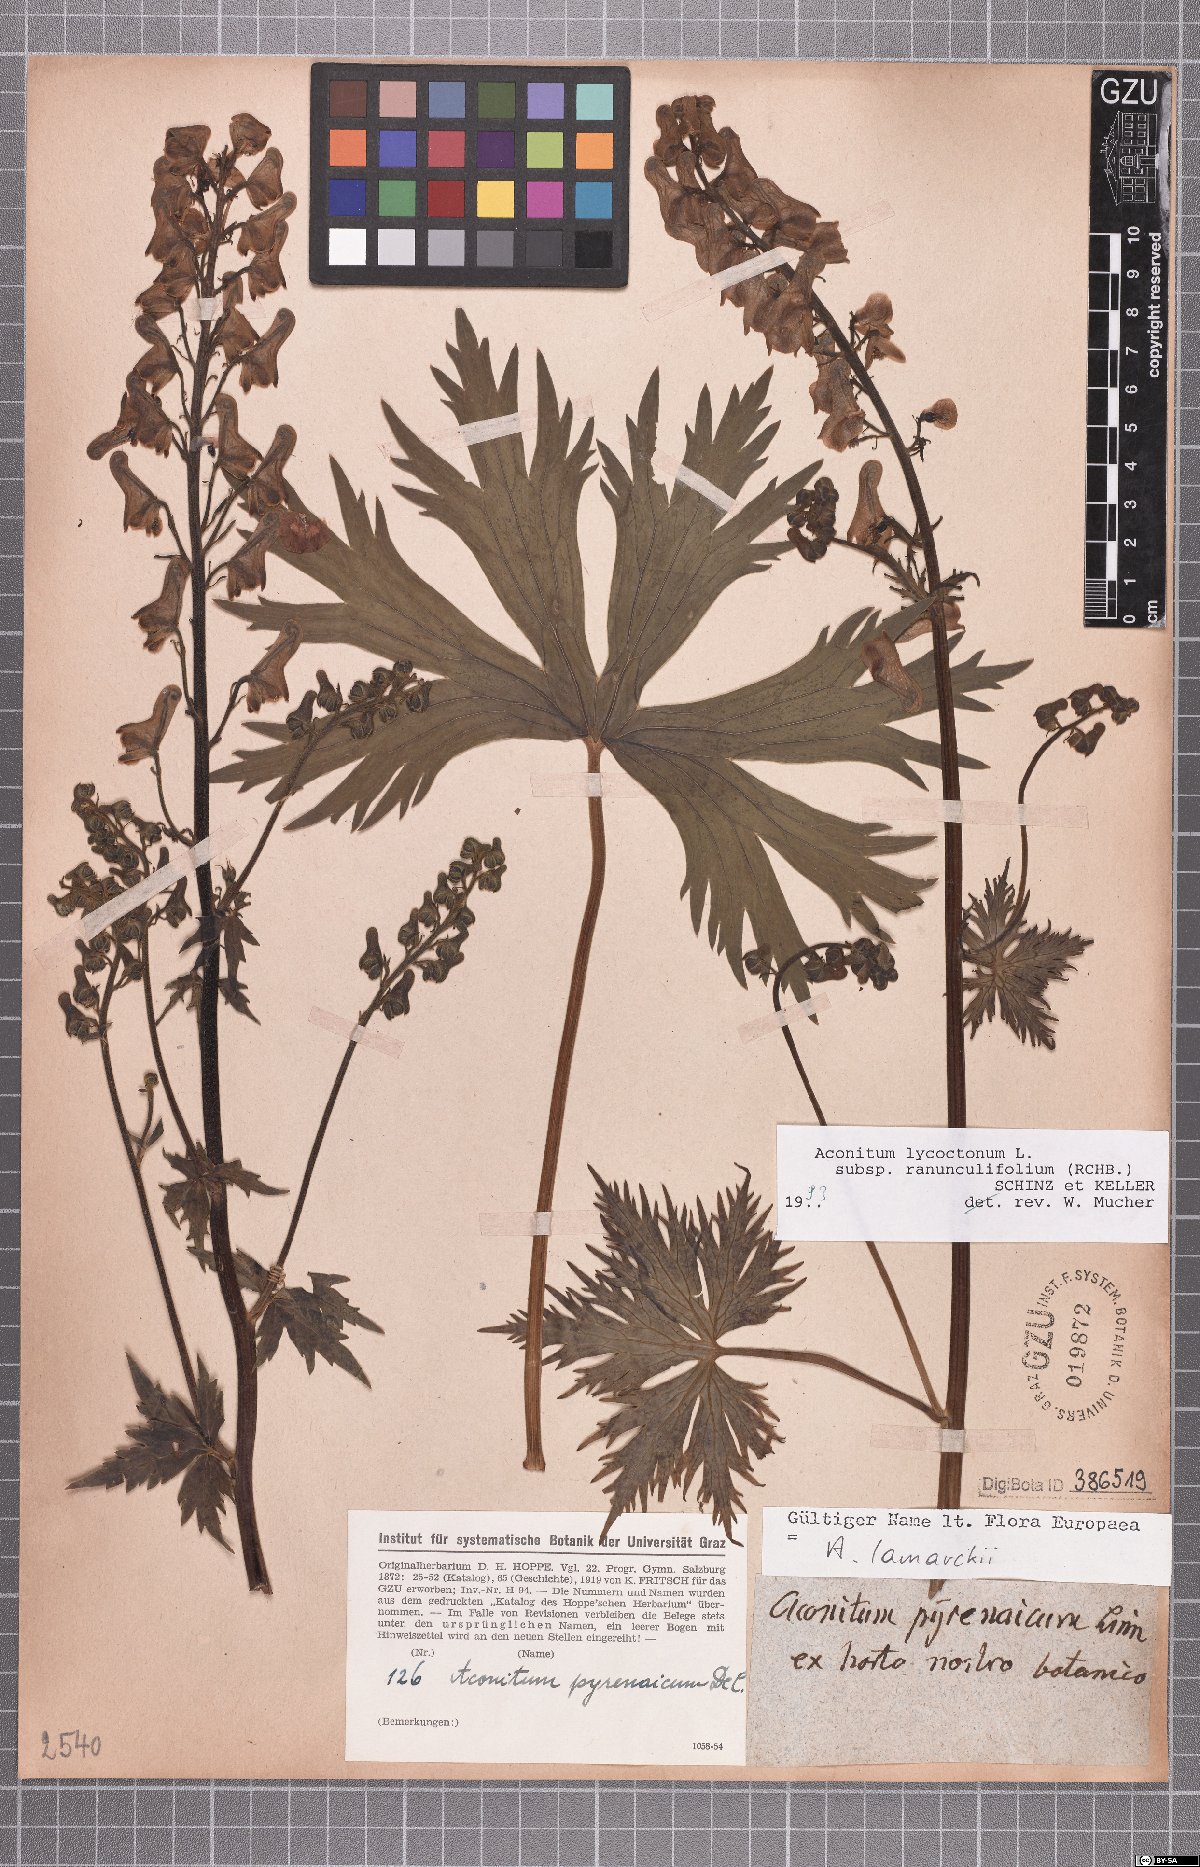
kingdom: Plantae
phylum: Tracheophyta
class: Magnoliopsida
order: Ranunculales
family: Ranunculaceae
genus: Aconitum
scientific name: Aconitum lycoctonum
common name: Wolf's-bane
